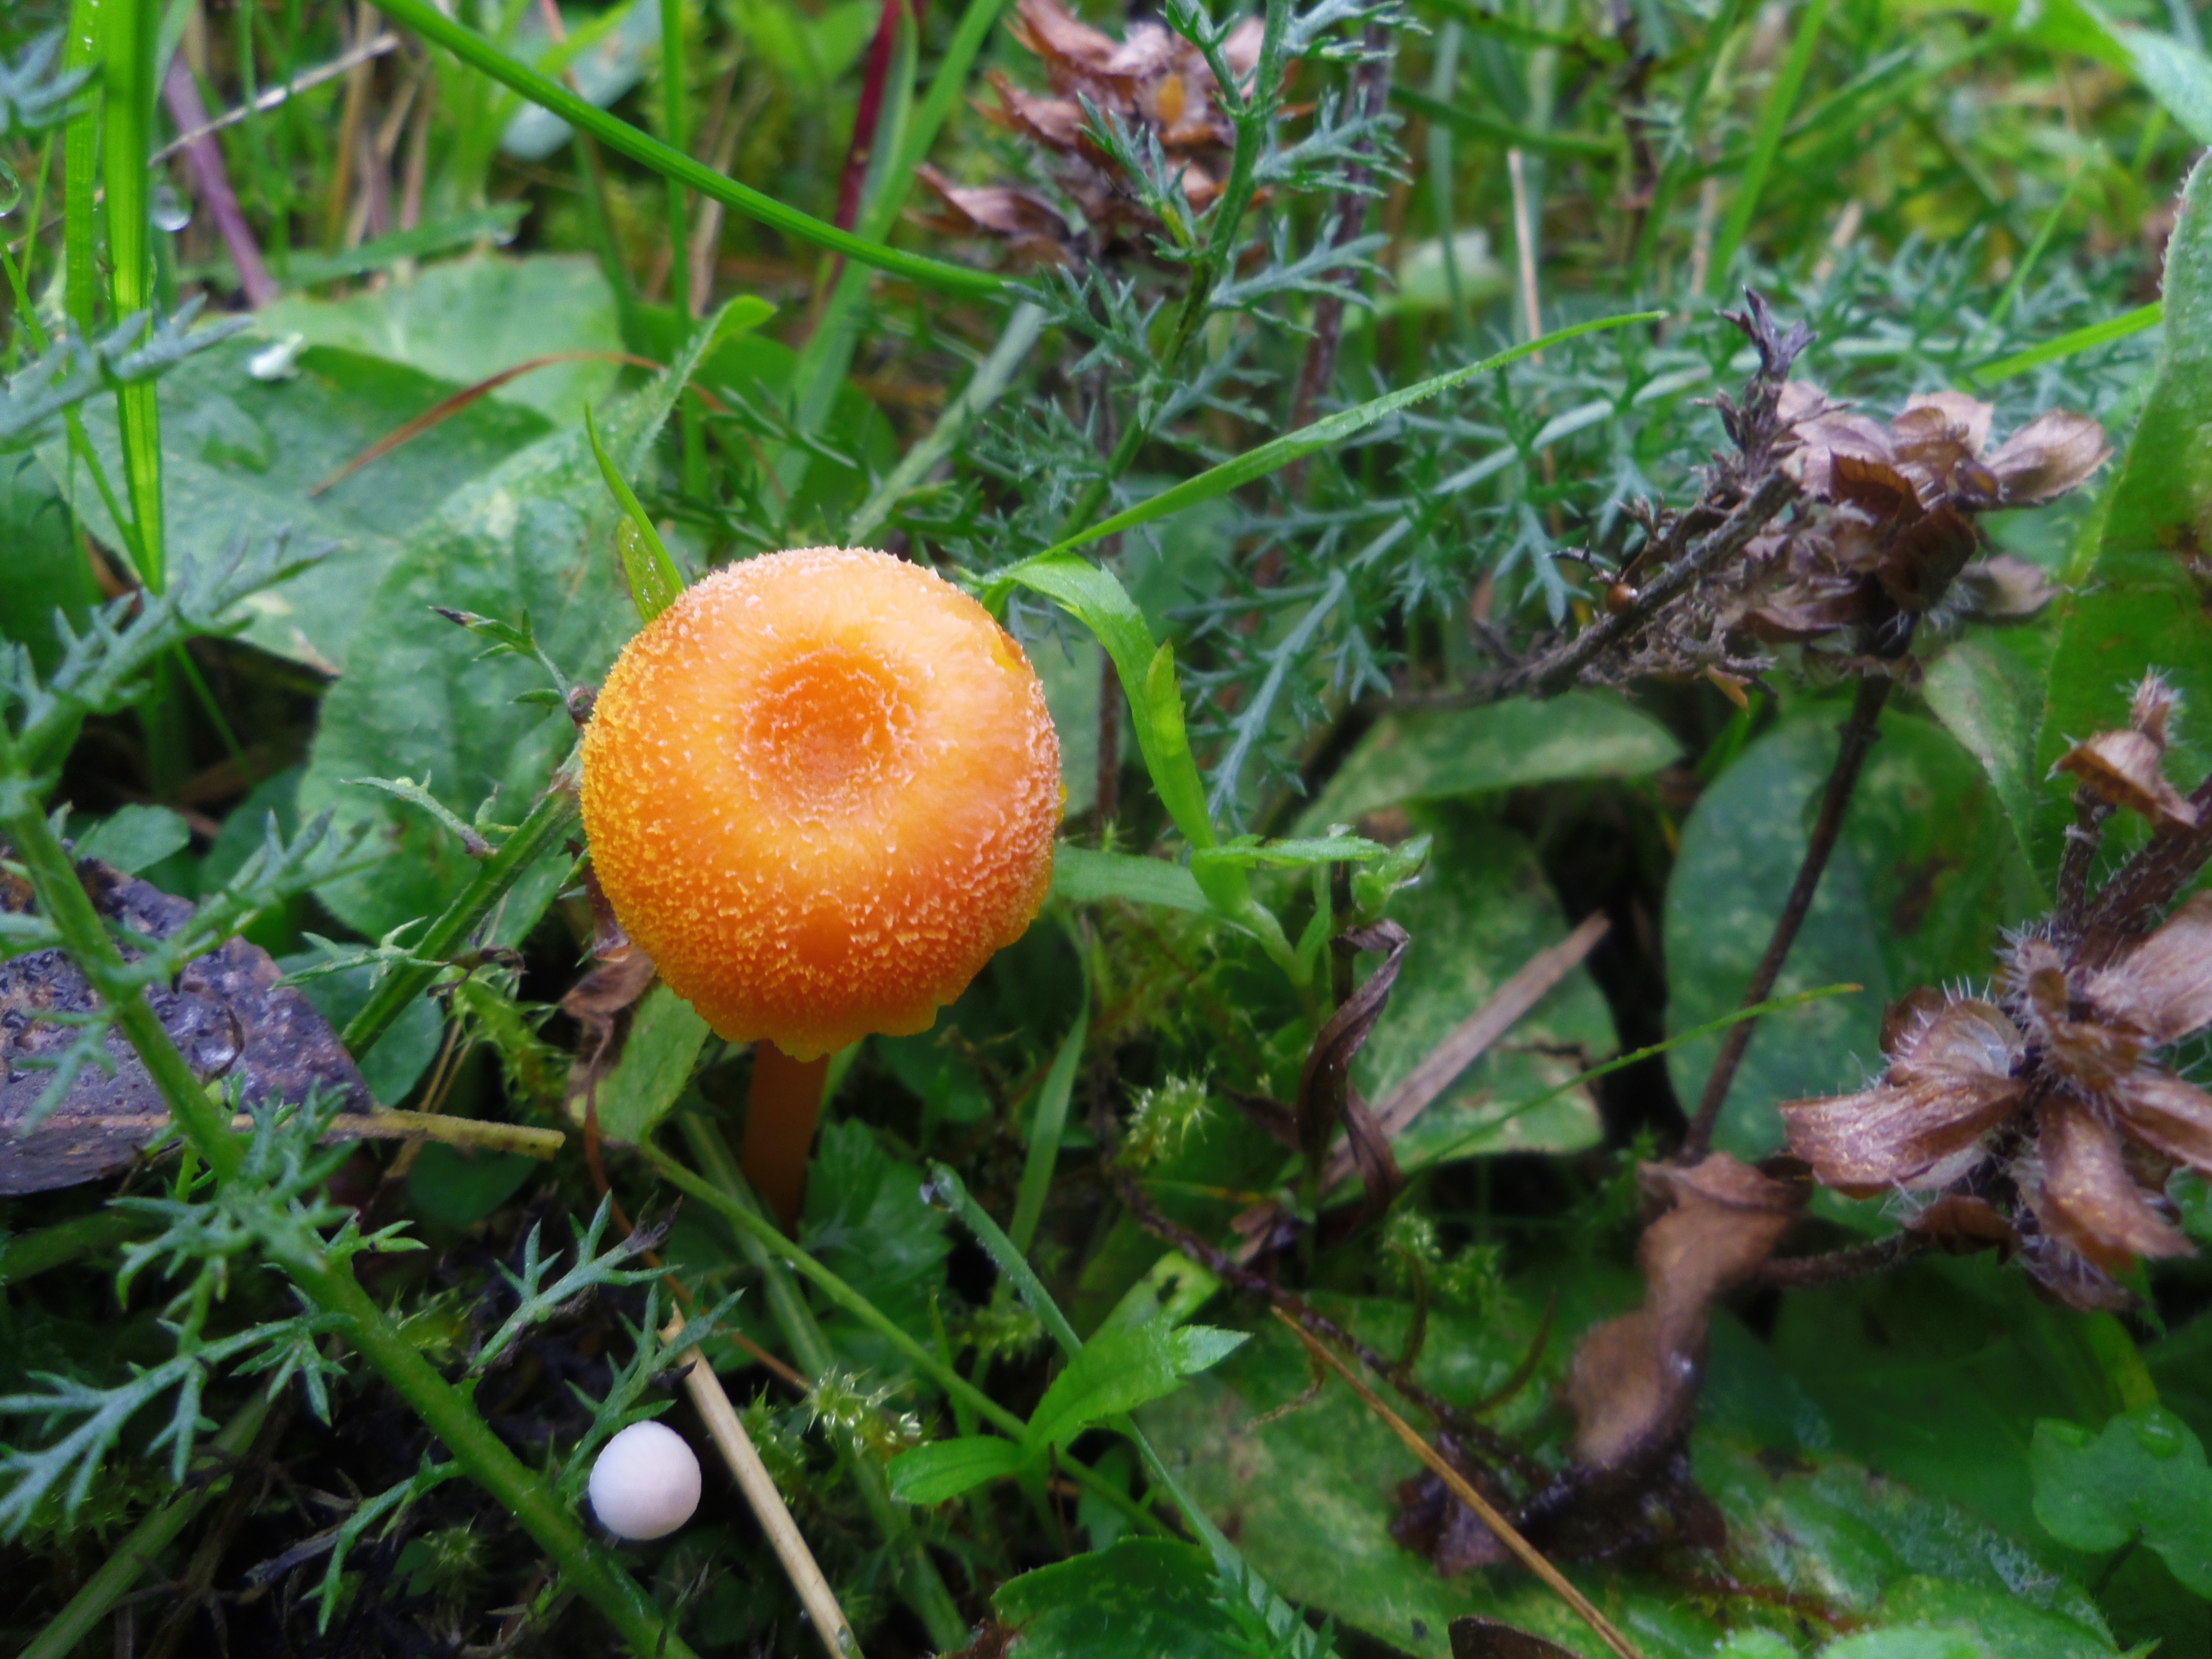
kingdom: Fungi
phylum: Basidiomycota
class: Agaricomycetes
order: Agaricales
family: Hygrophoraceae
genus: Hygrocybe
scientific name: Hygrocybe cantharellus
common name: Goblet waxcap
